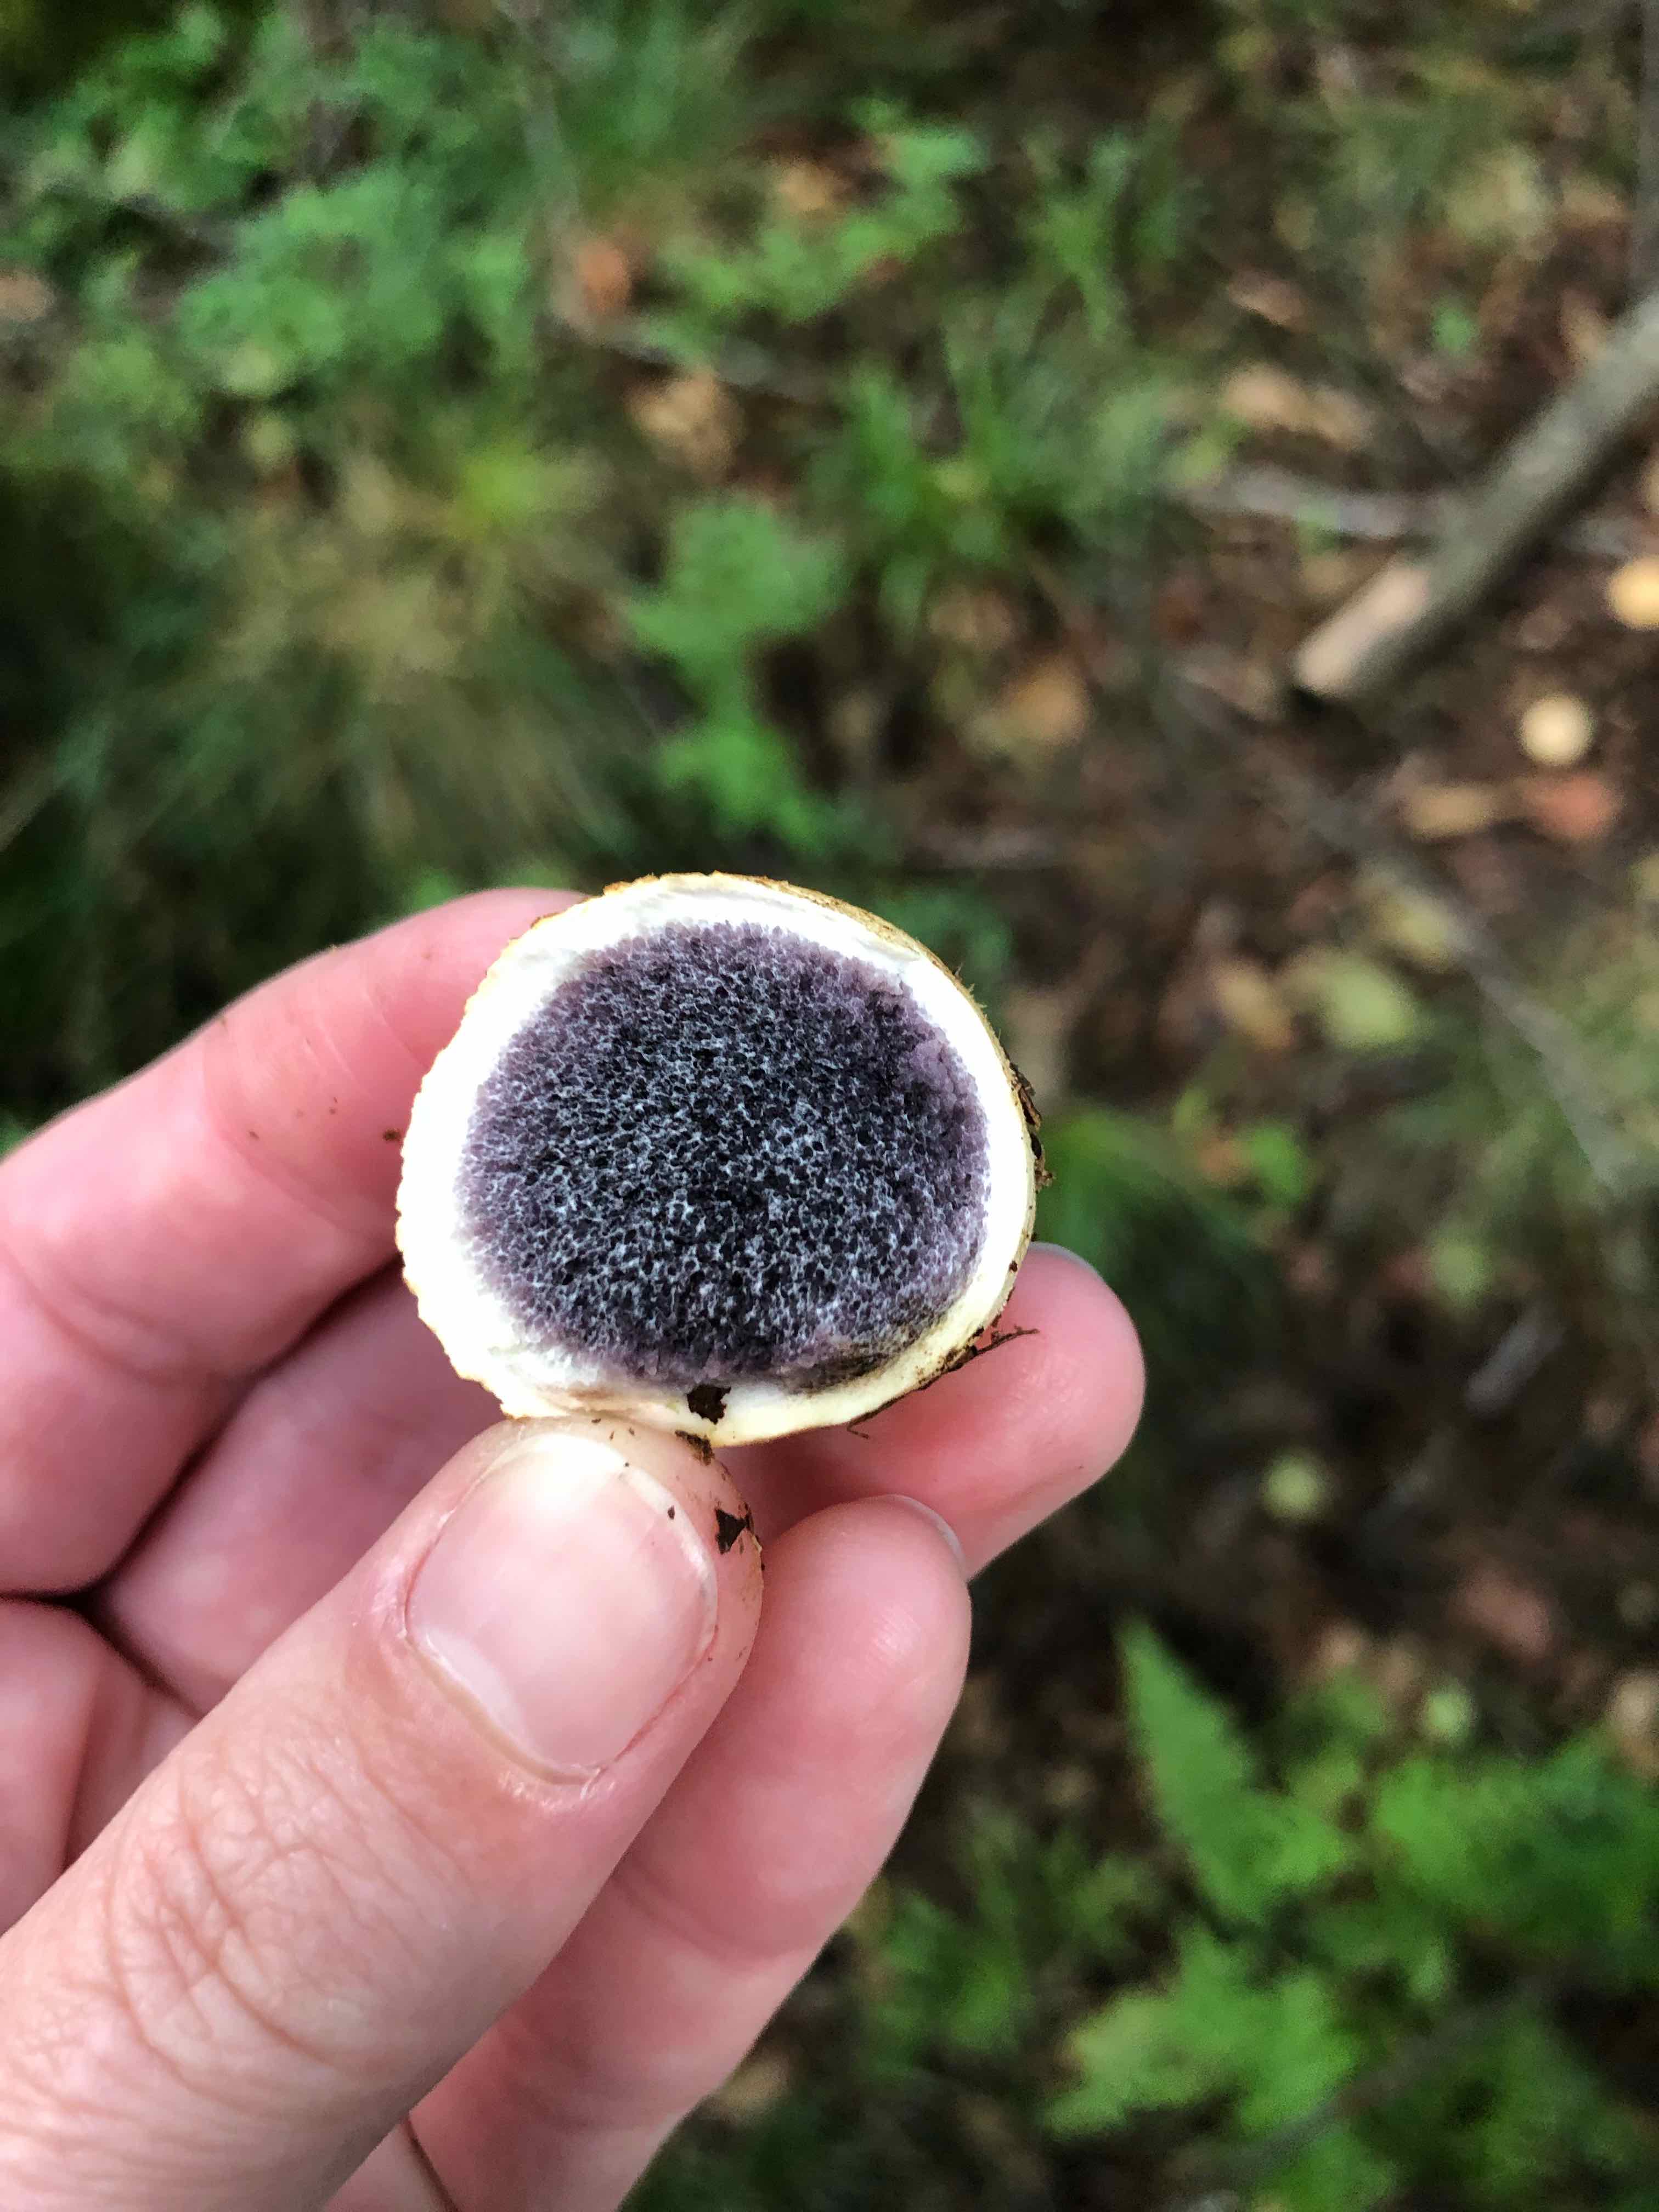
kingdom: Fungi
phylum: Basidiomycota
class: Agaricomycetes
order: Boletales
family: Sclerodermataceae
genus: Scleroderma
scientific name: Scleroderma citrinum
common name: almindelig bruskbold
